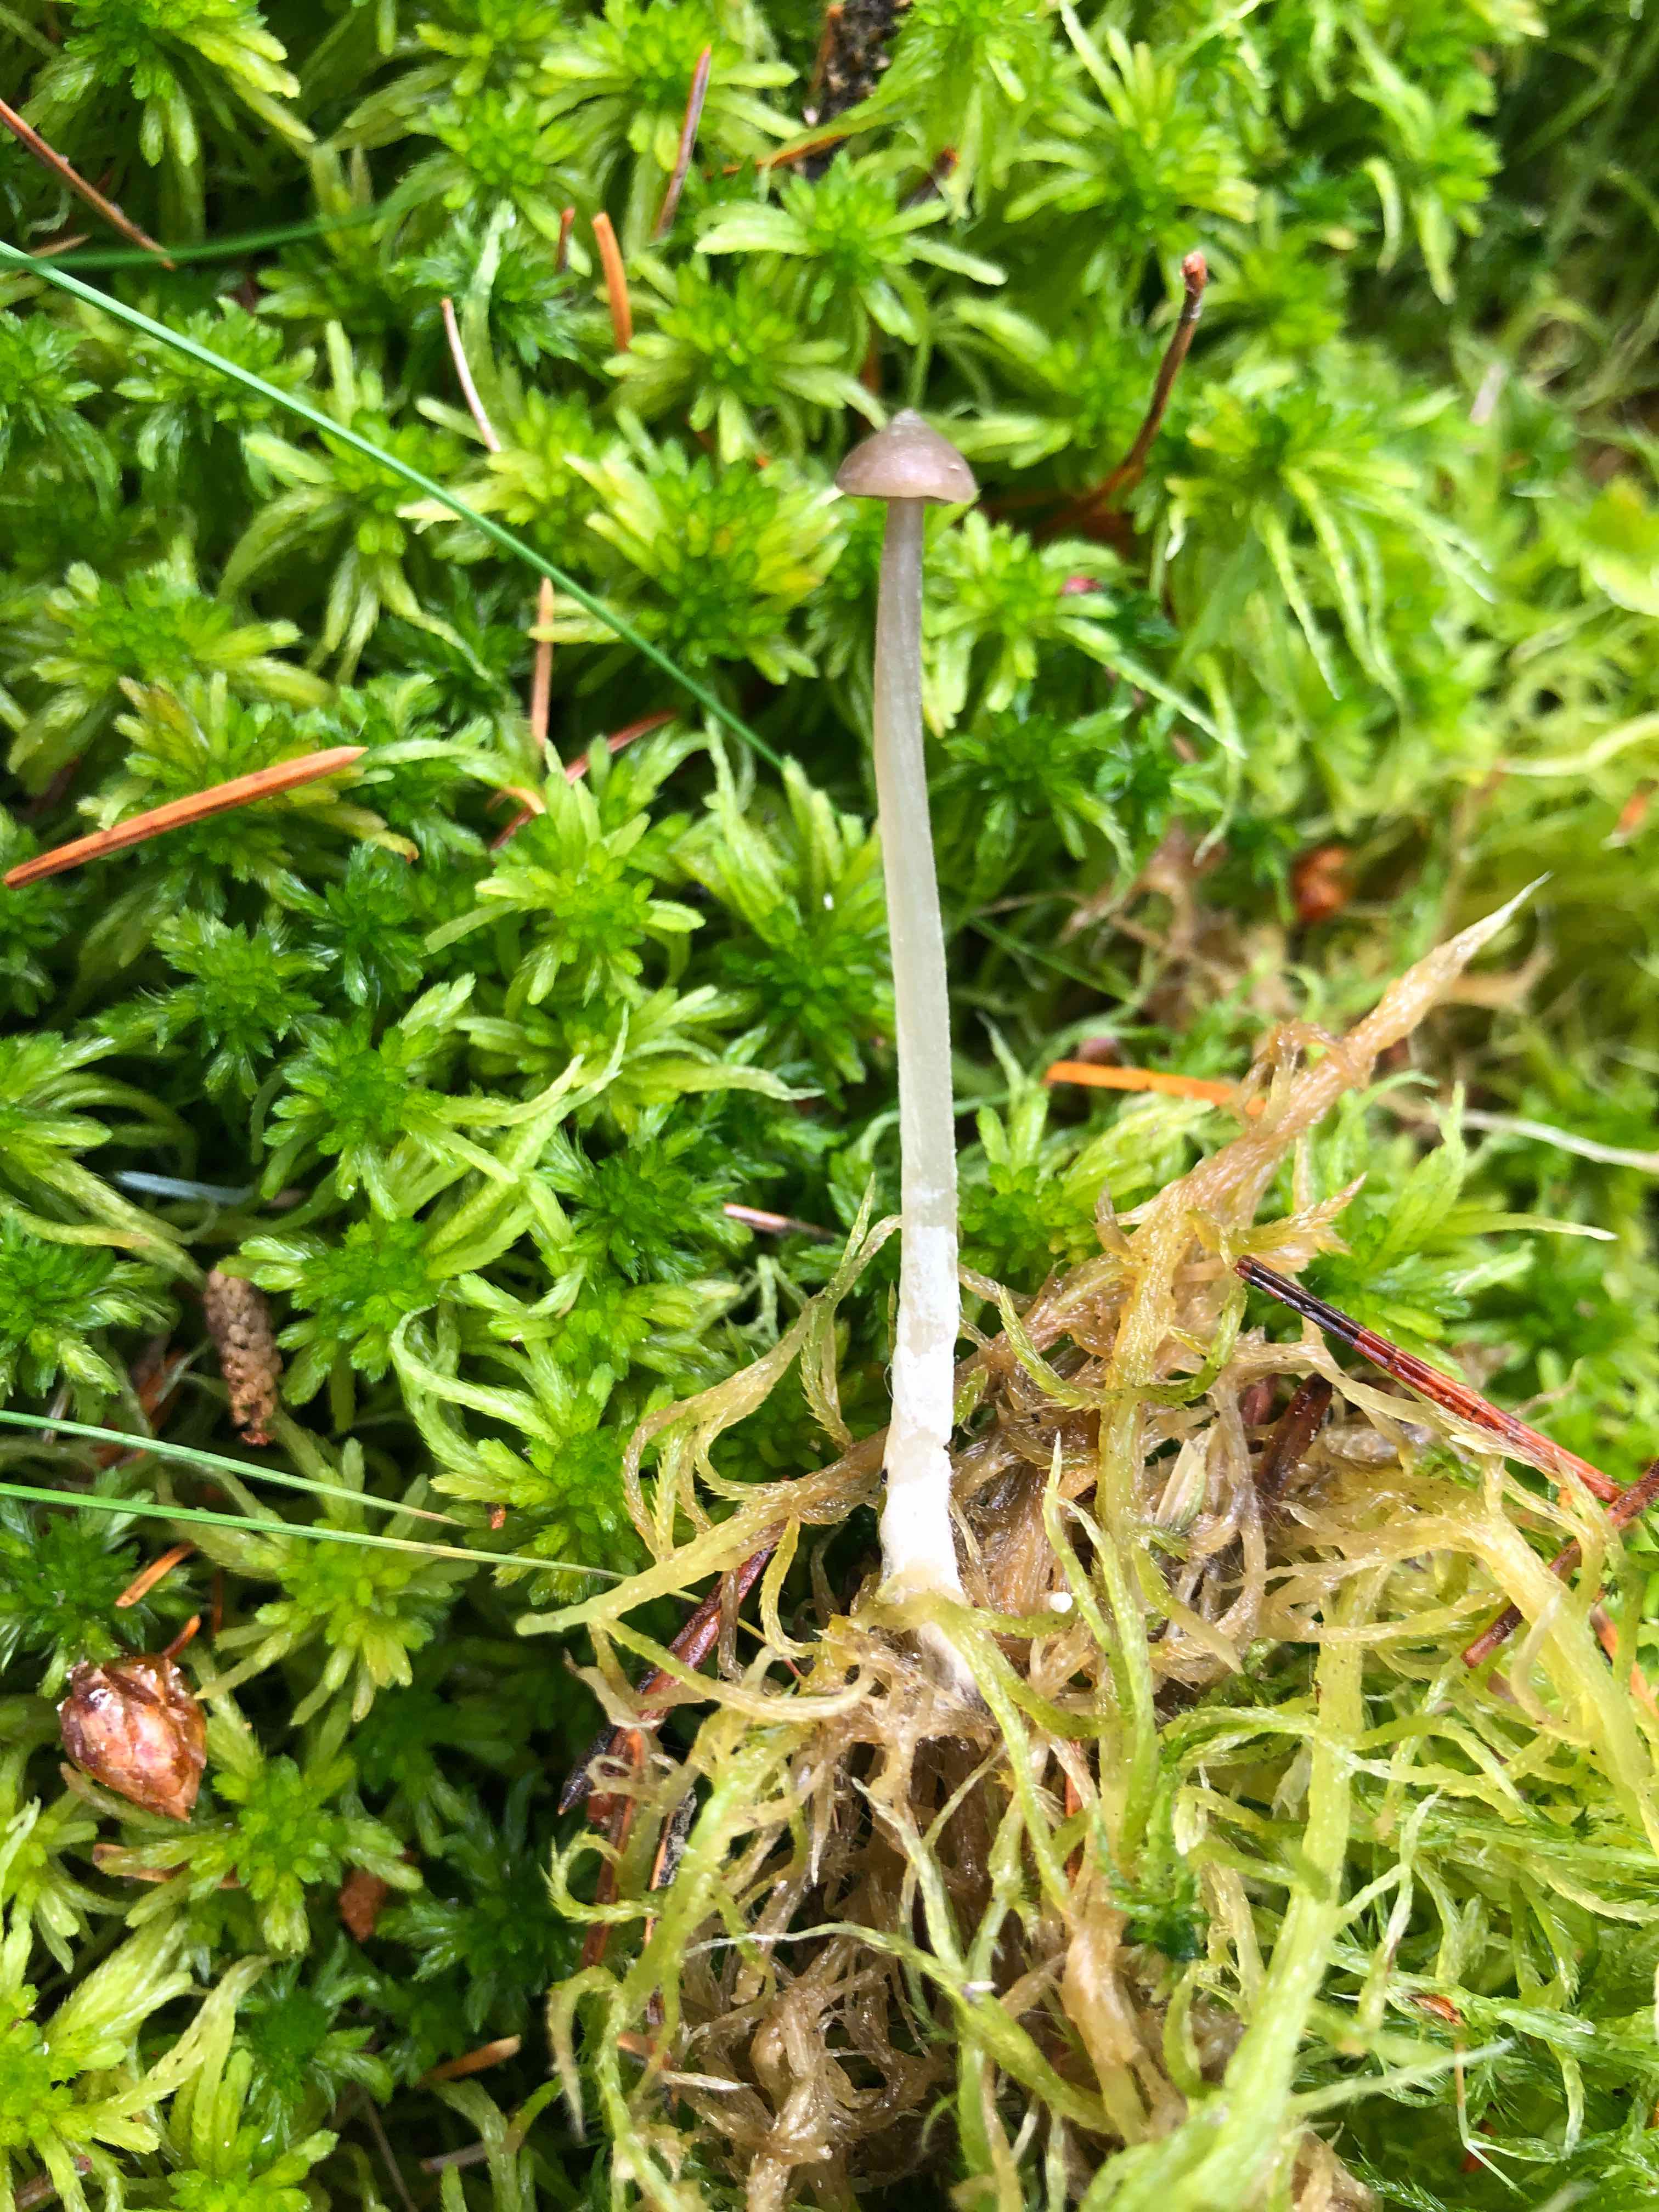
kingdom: Fungi
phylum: Basidiomycota
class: Agaricomycetes
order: Agaricales
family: Lyophyllaceae
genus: Sphagnurus
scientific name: Sphagnurus paluster
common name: tørvemos-gråblad
